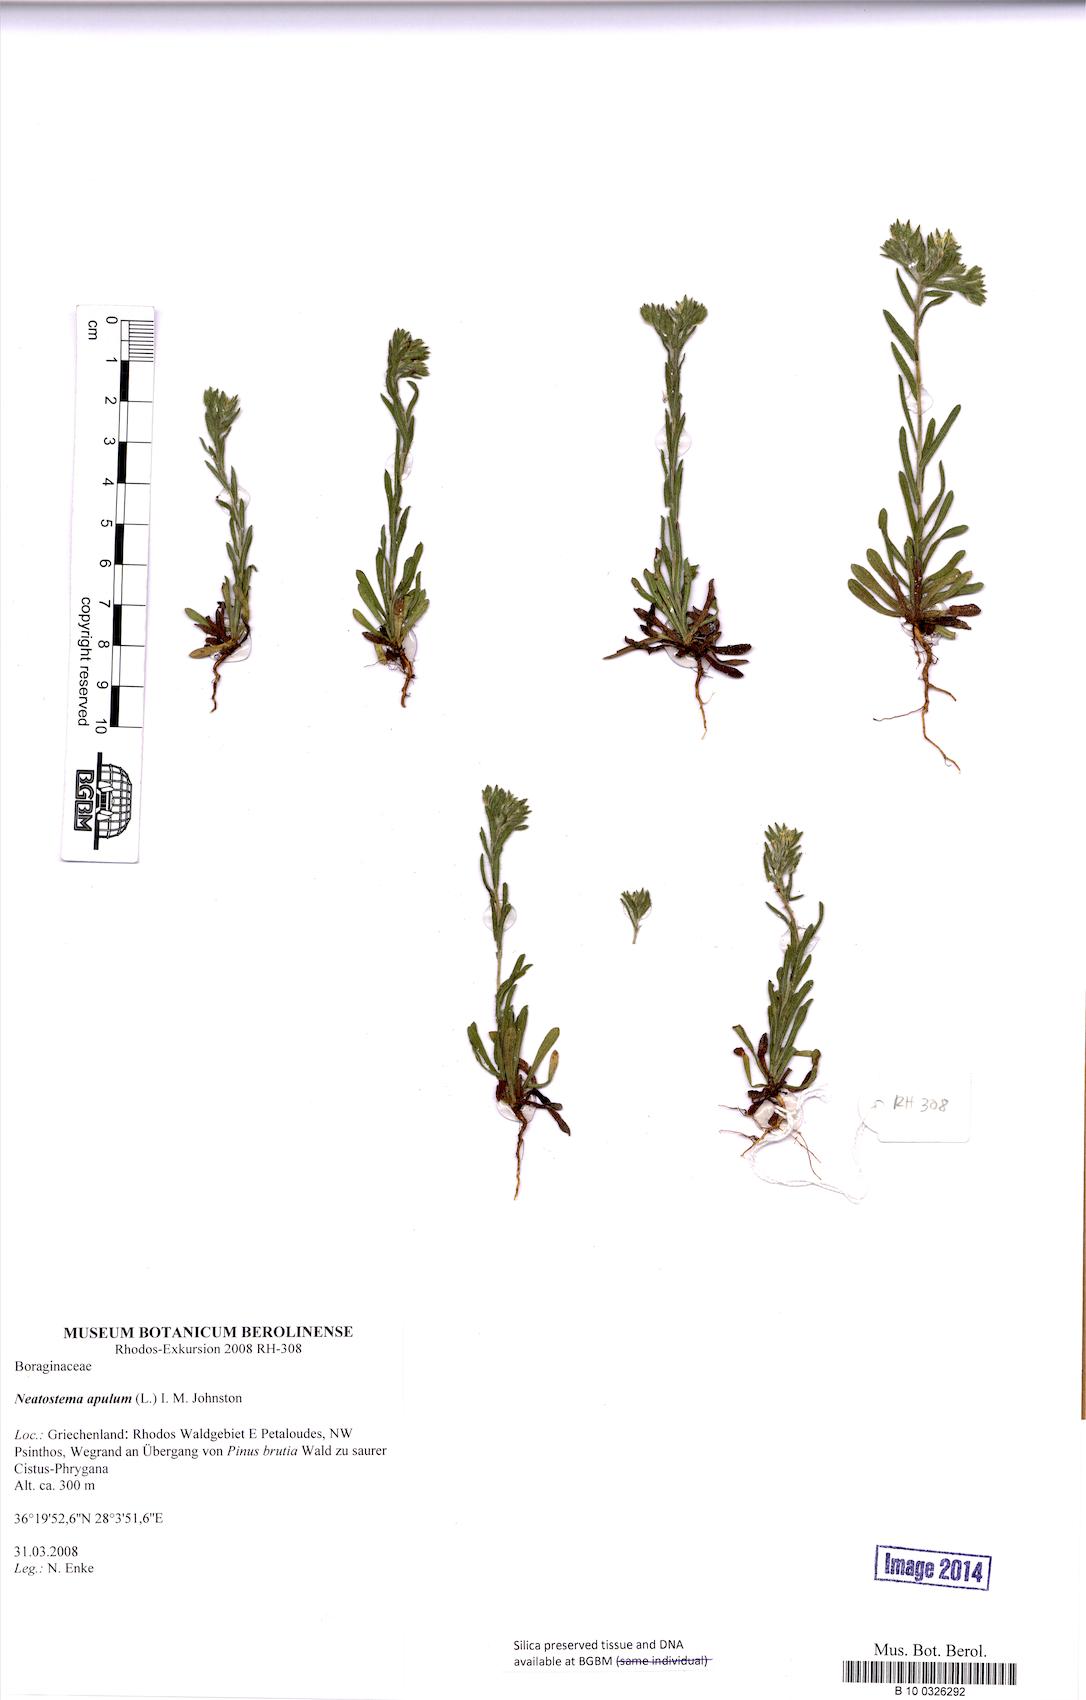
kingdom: Plantae
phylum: Tracheophyta
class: Magnoliopsida
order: Boraginales
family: Boraginaceae
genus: Neatostema
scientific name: Neatostema apulum
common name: Hairy sheepweed
